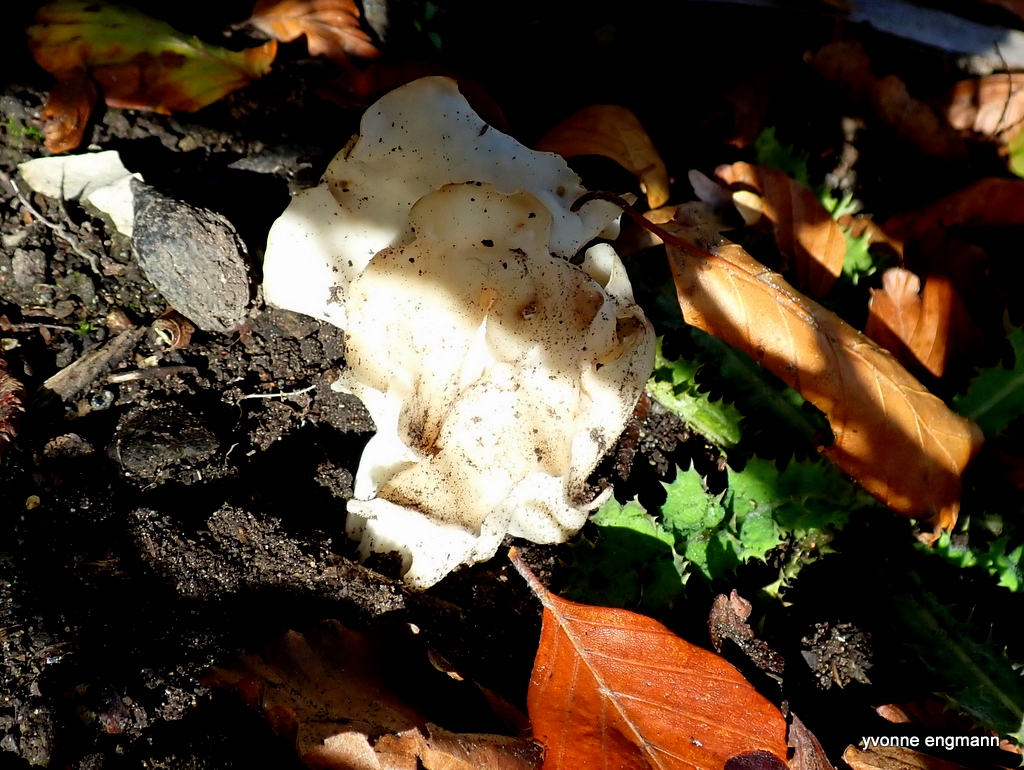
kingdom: Fungi
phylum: Ascomycota
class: Pezizomycetes
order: Pezizales
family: Helvellaceae
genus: Helvella
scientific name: Helvella crispa
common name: kruset foldhat
